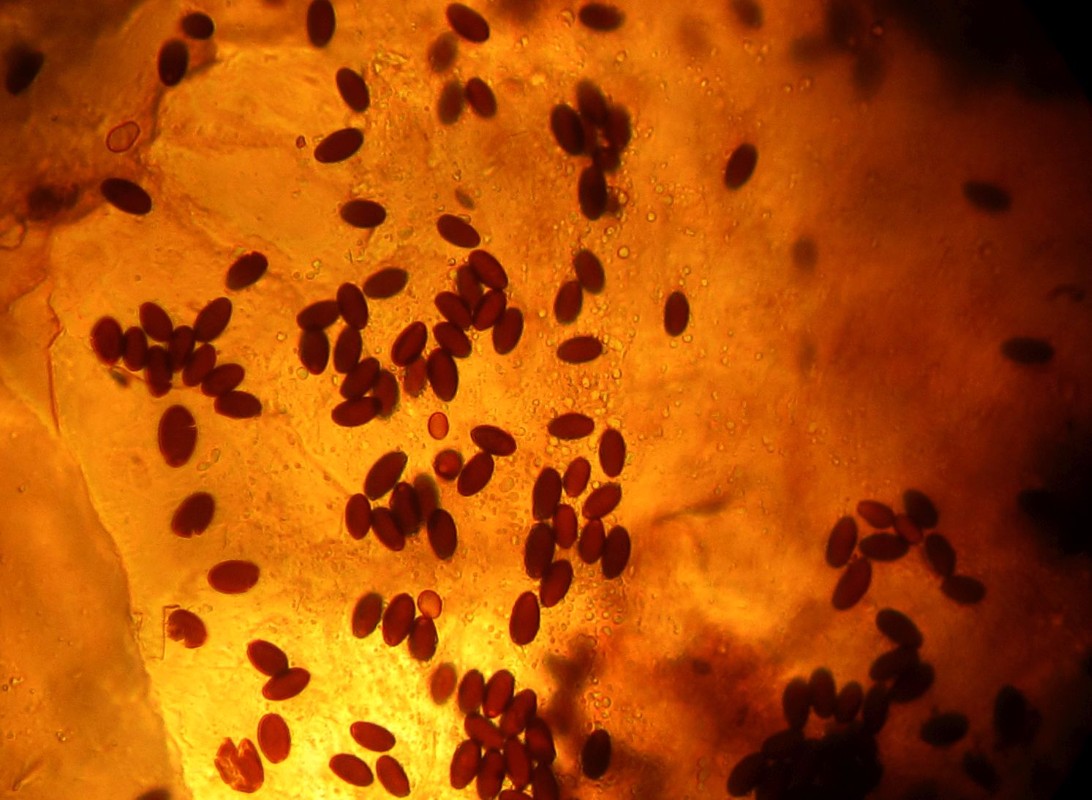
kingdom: Fungi
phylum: Basidiomycota
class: Agaricomycetes
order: Agaricales
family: Psathyrellaceae
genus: Coprinellus
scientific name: Coprinellus
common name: blækhat
